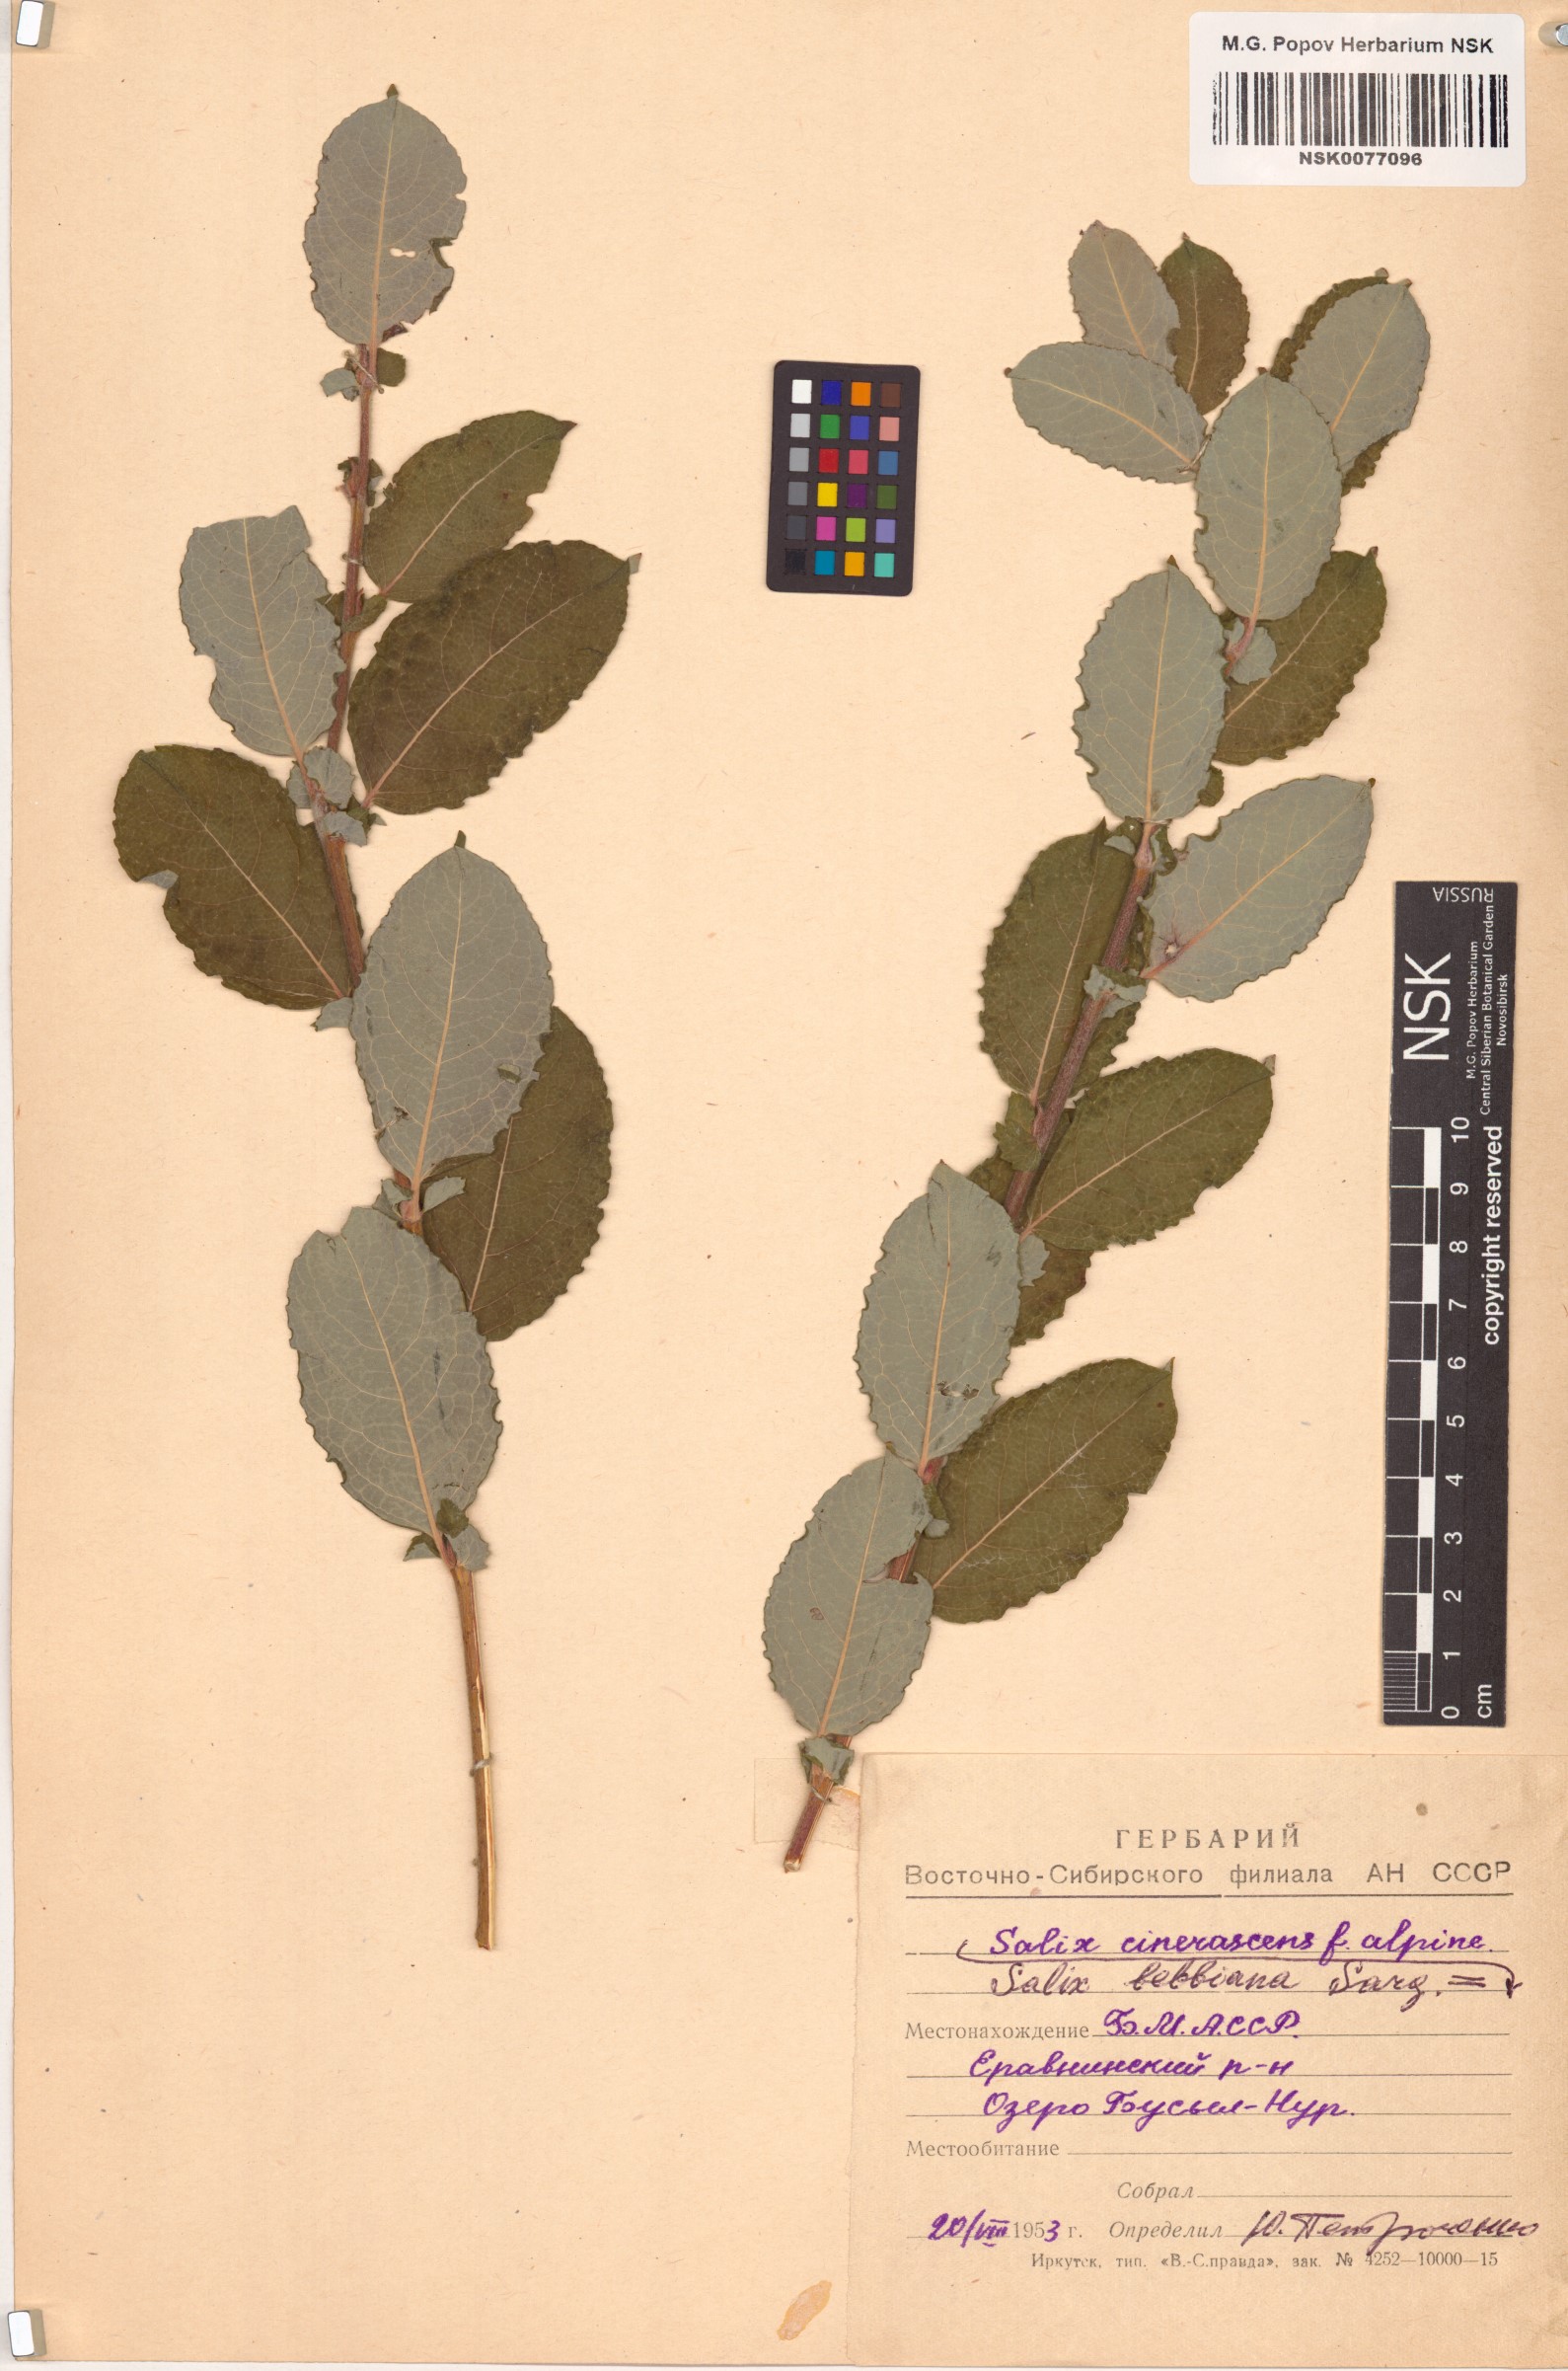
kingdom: Plantae
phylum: Tracheophyta
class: Magnoliopsida
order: Malpighiales
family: Salicaceae
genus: Salix
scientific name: Salix bebbiana
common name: Bebb's willow
